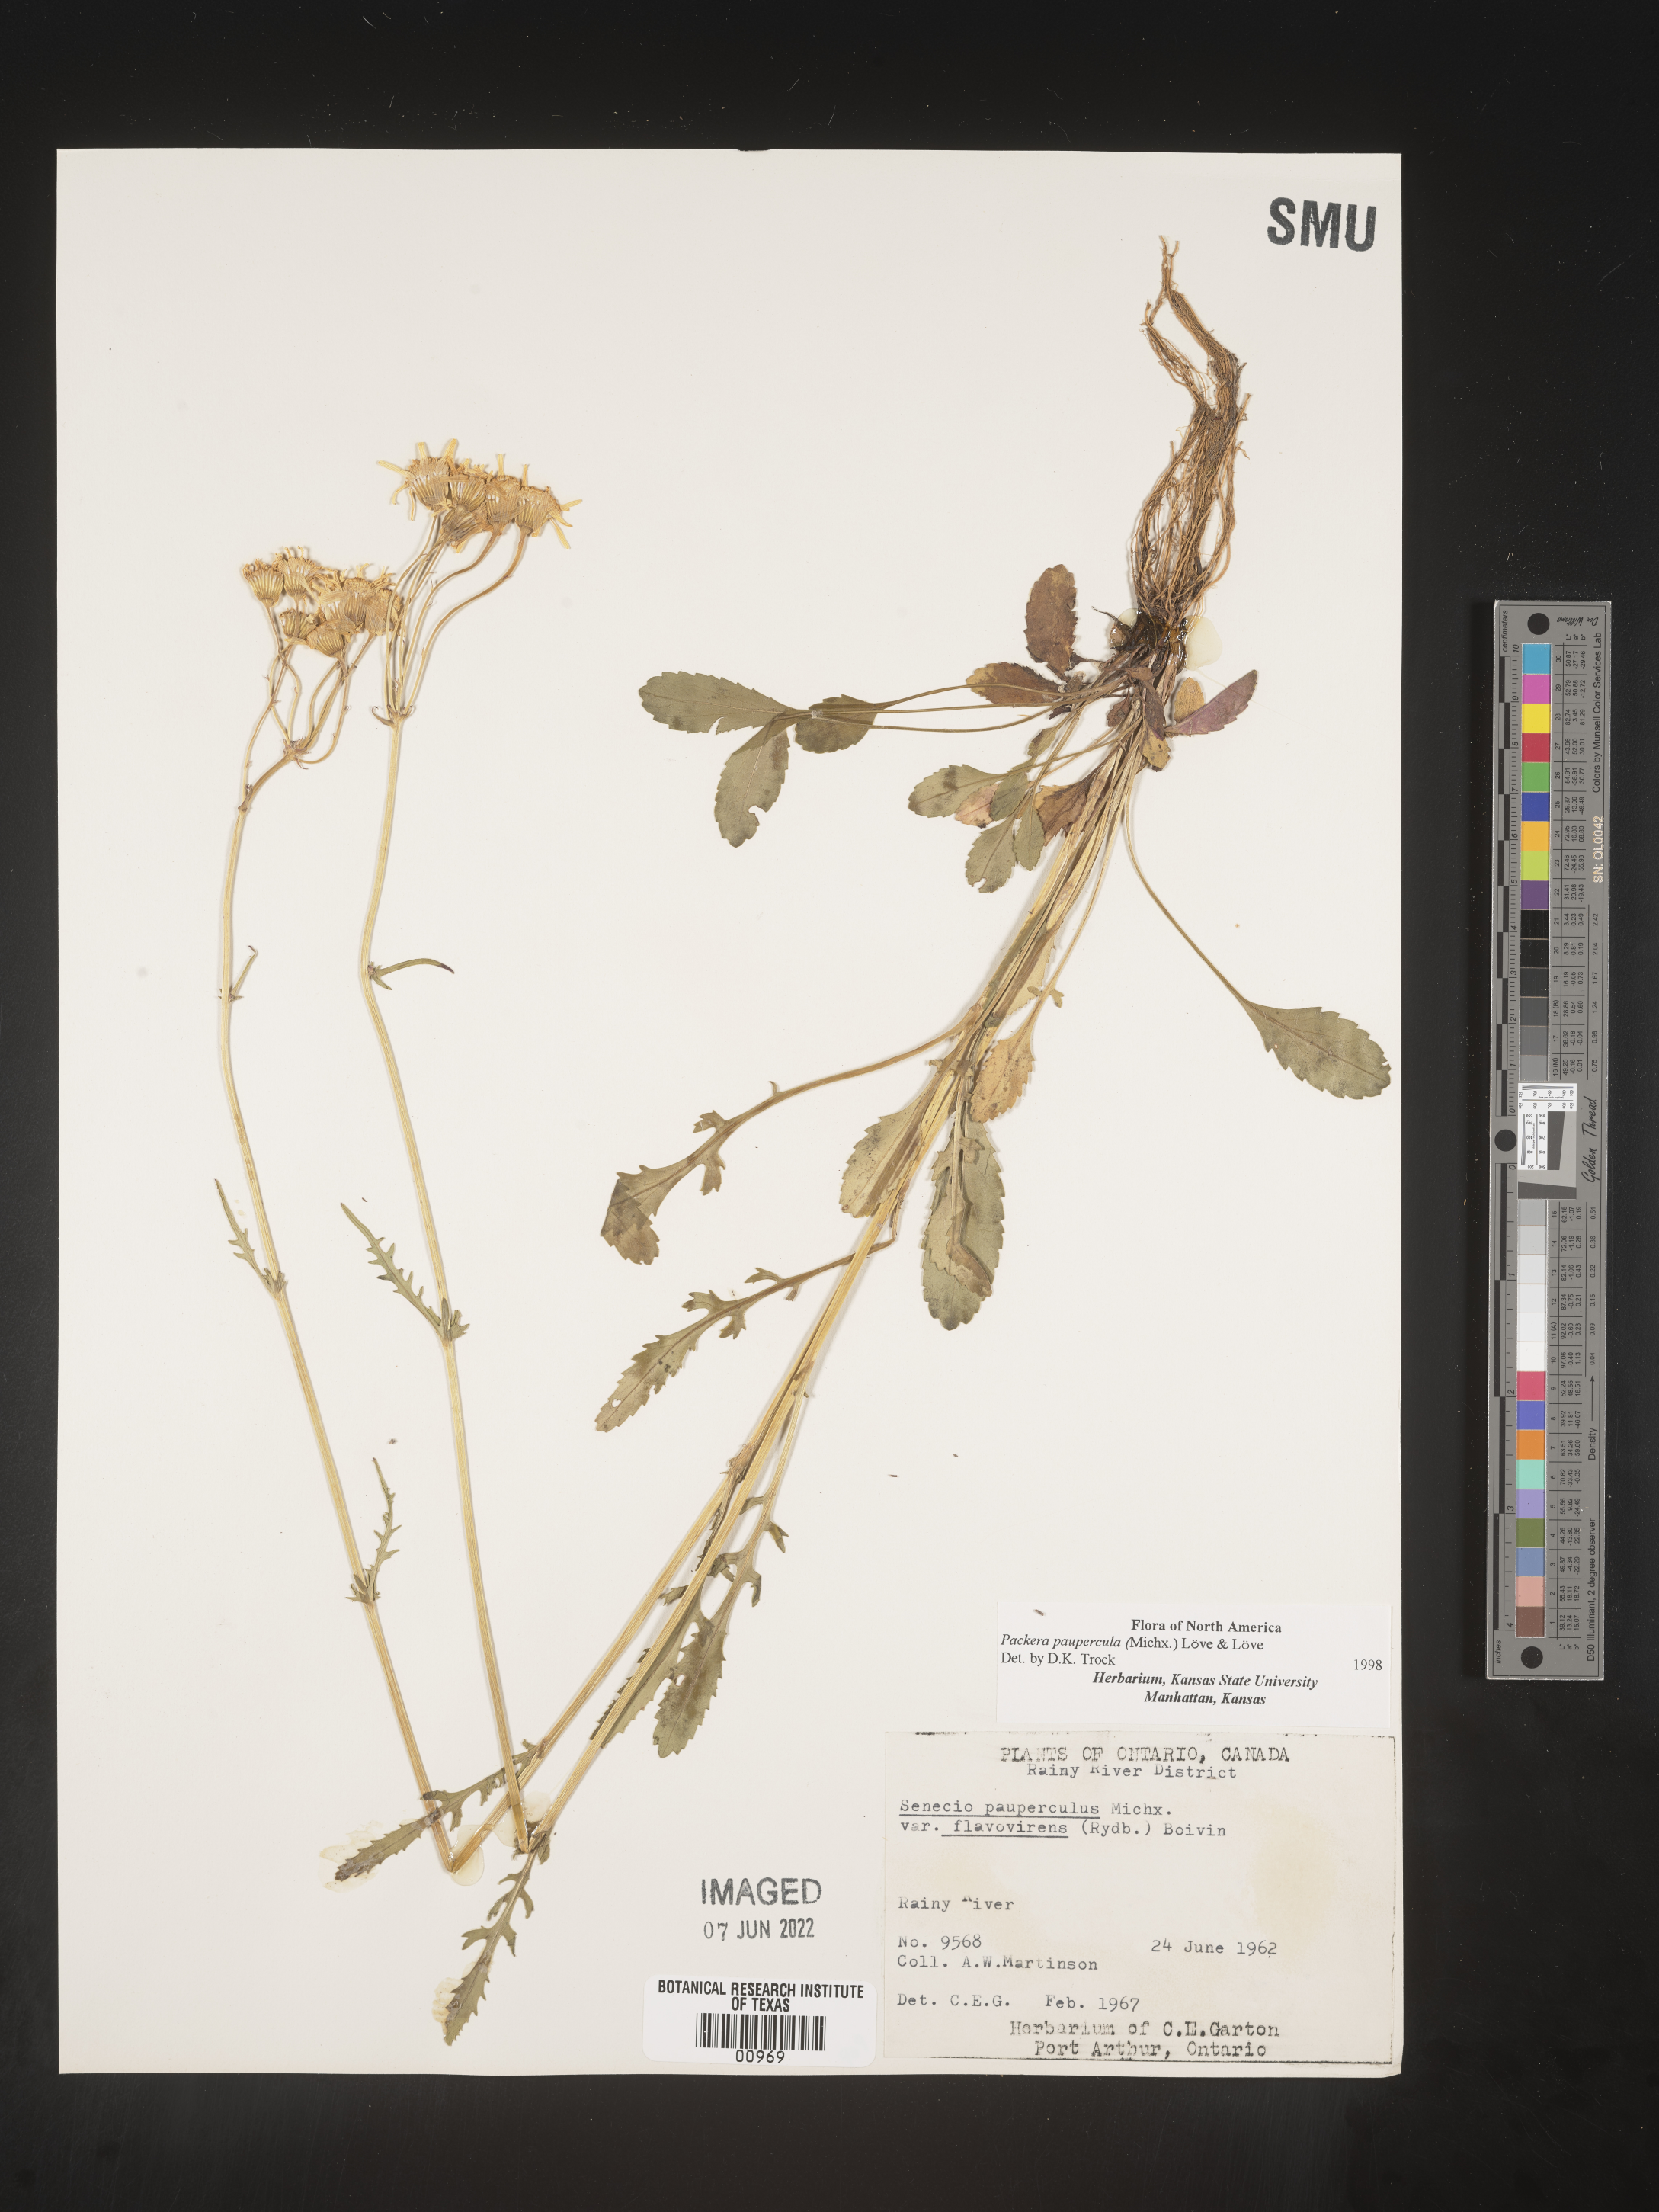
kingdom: Plantae
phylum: Tracheophyta
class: Magnoliopsida
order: Asterales
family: Asteraceae
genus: Packera
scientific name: Packera paupercula
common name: Balsam groundsel
